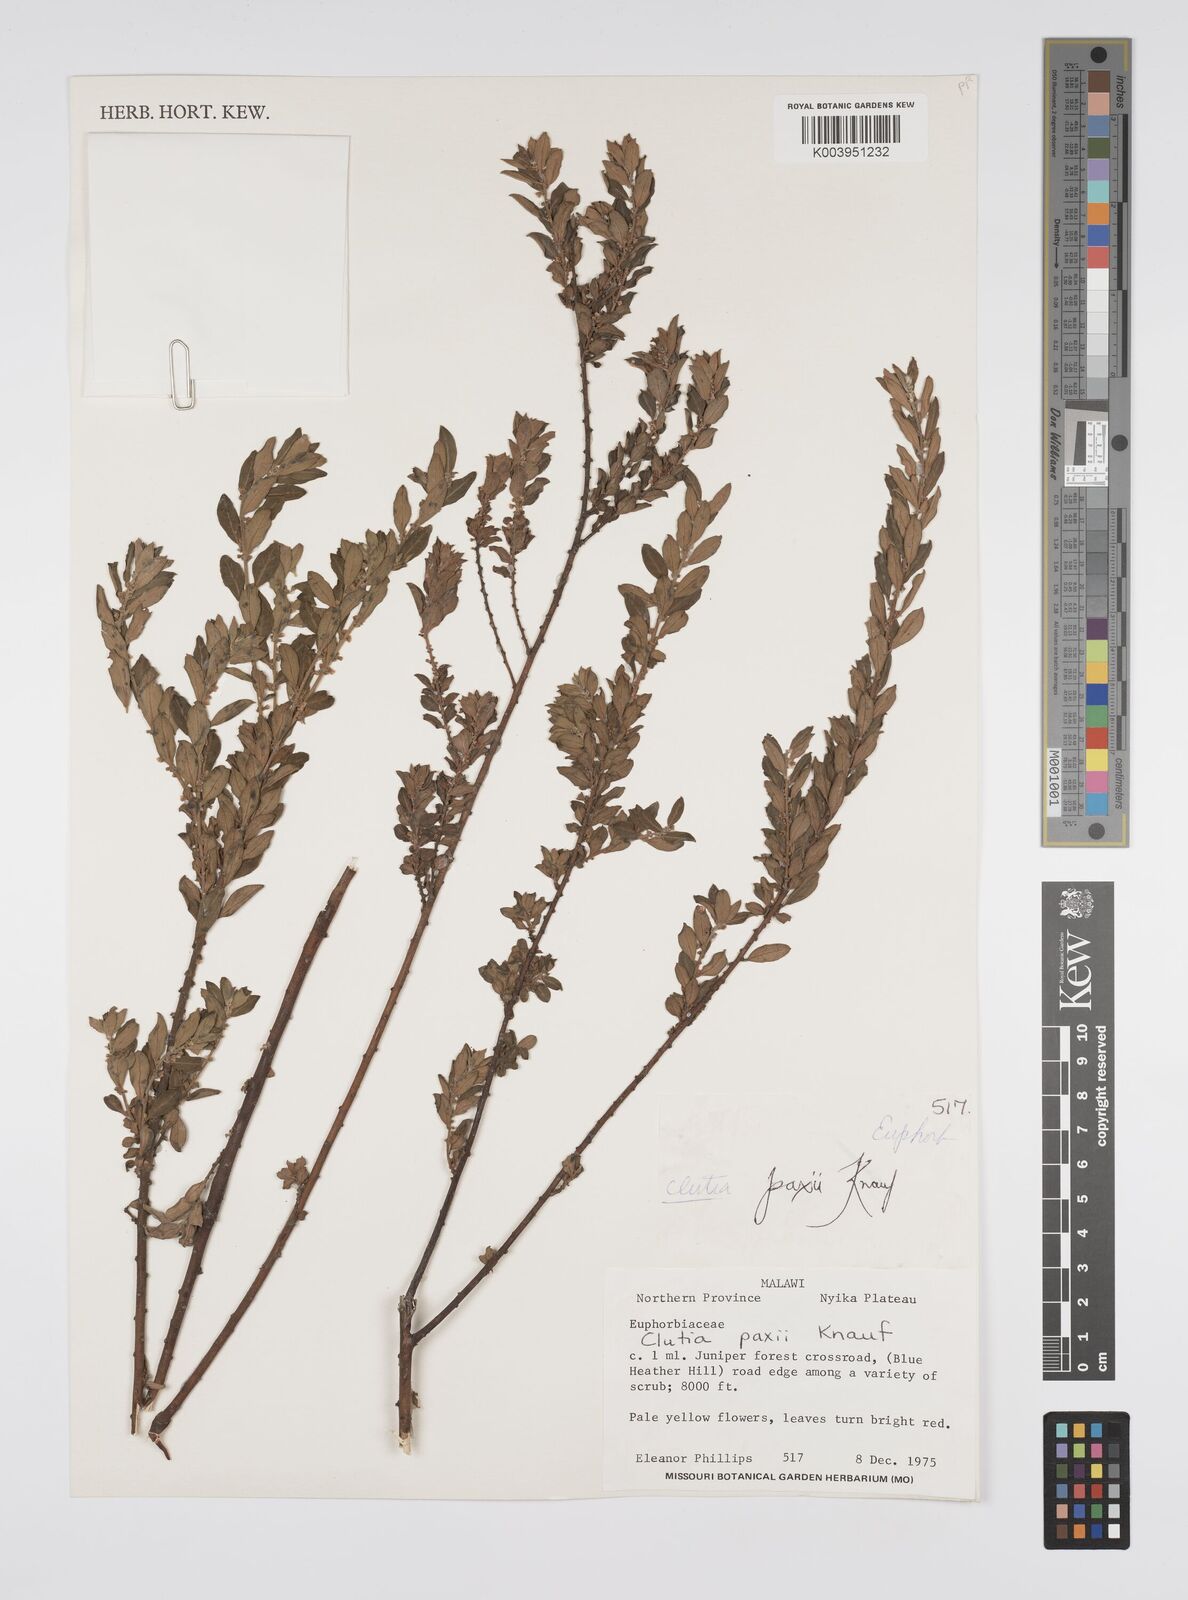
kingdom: Plantae
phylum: Tracheophyta
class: Magnoliopsida
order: Malpighiales
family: Peraceae
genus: Clutia
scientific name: Clutia paxii
